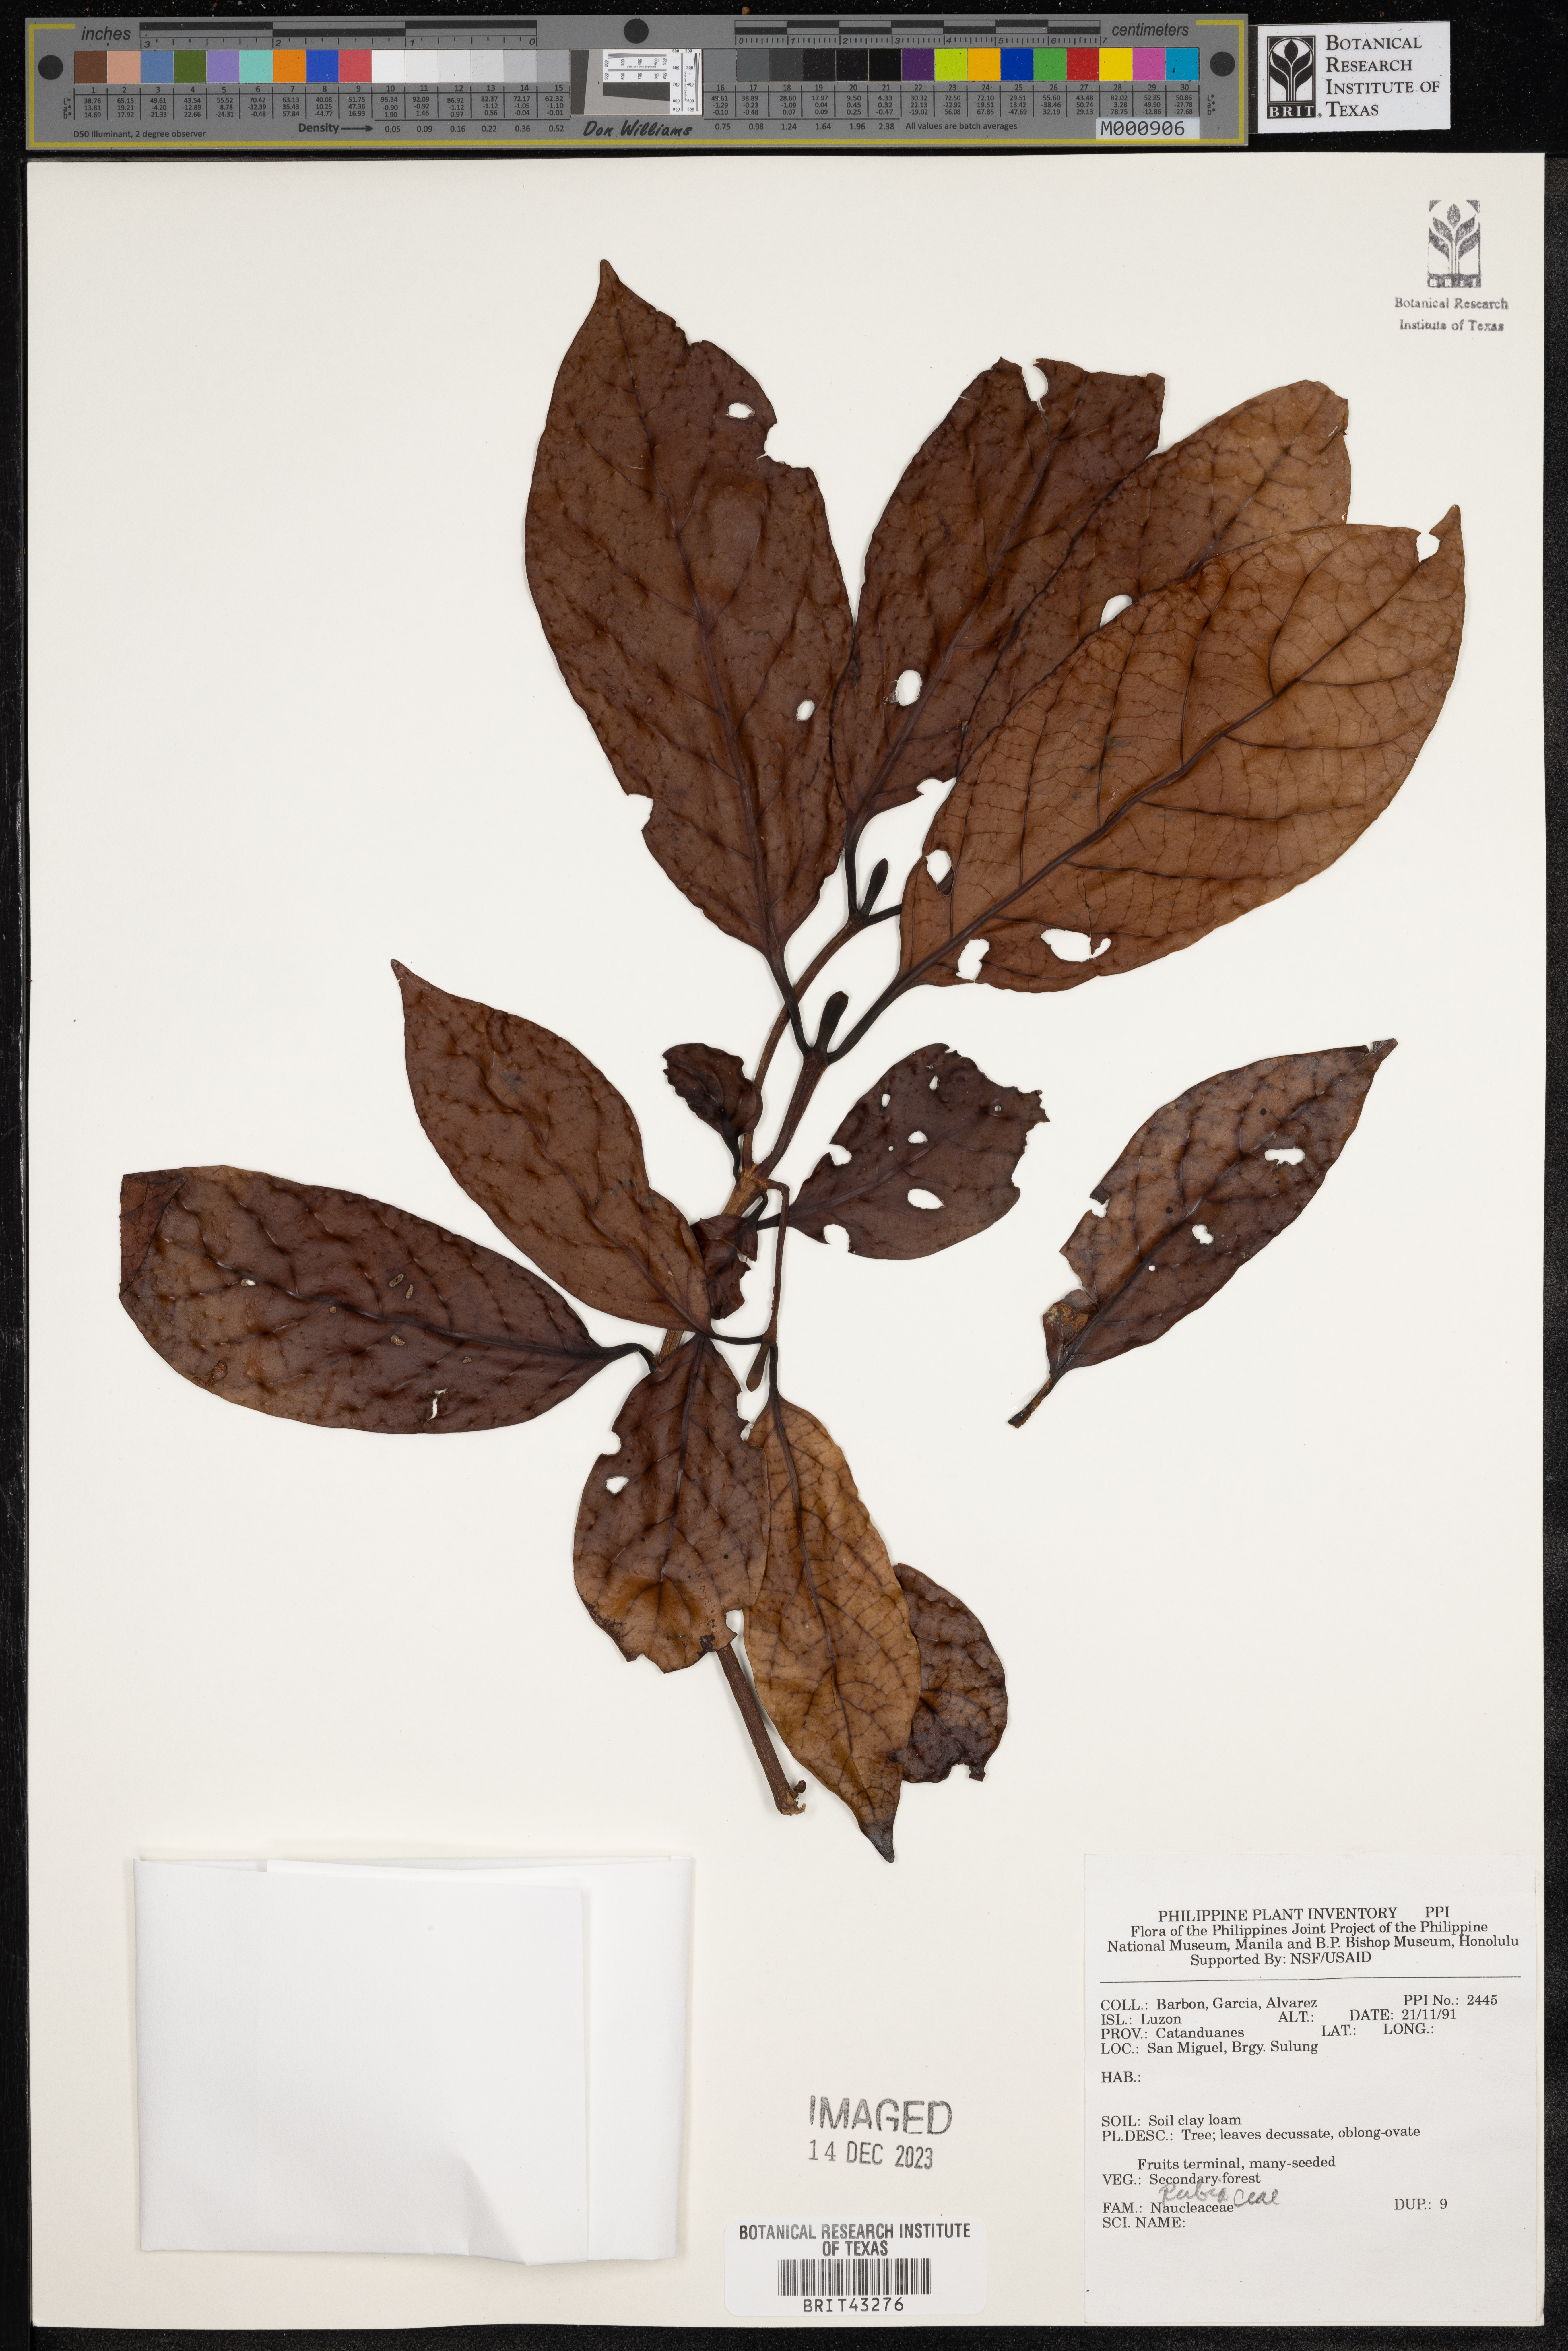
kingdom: Plantae
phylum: Tracheophyta
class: Magnoliopsida
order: Gentianales
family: Rubiaceae
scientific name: Rubiaceae
